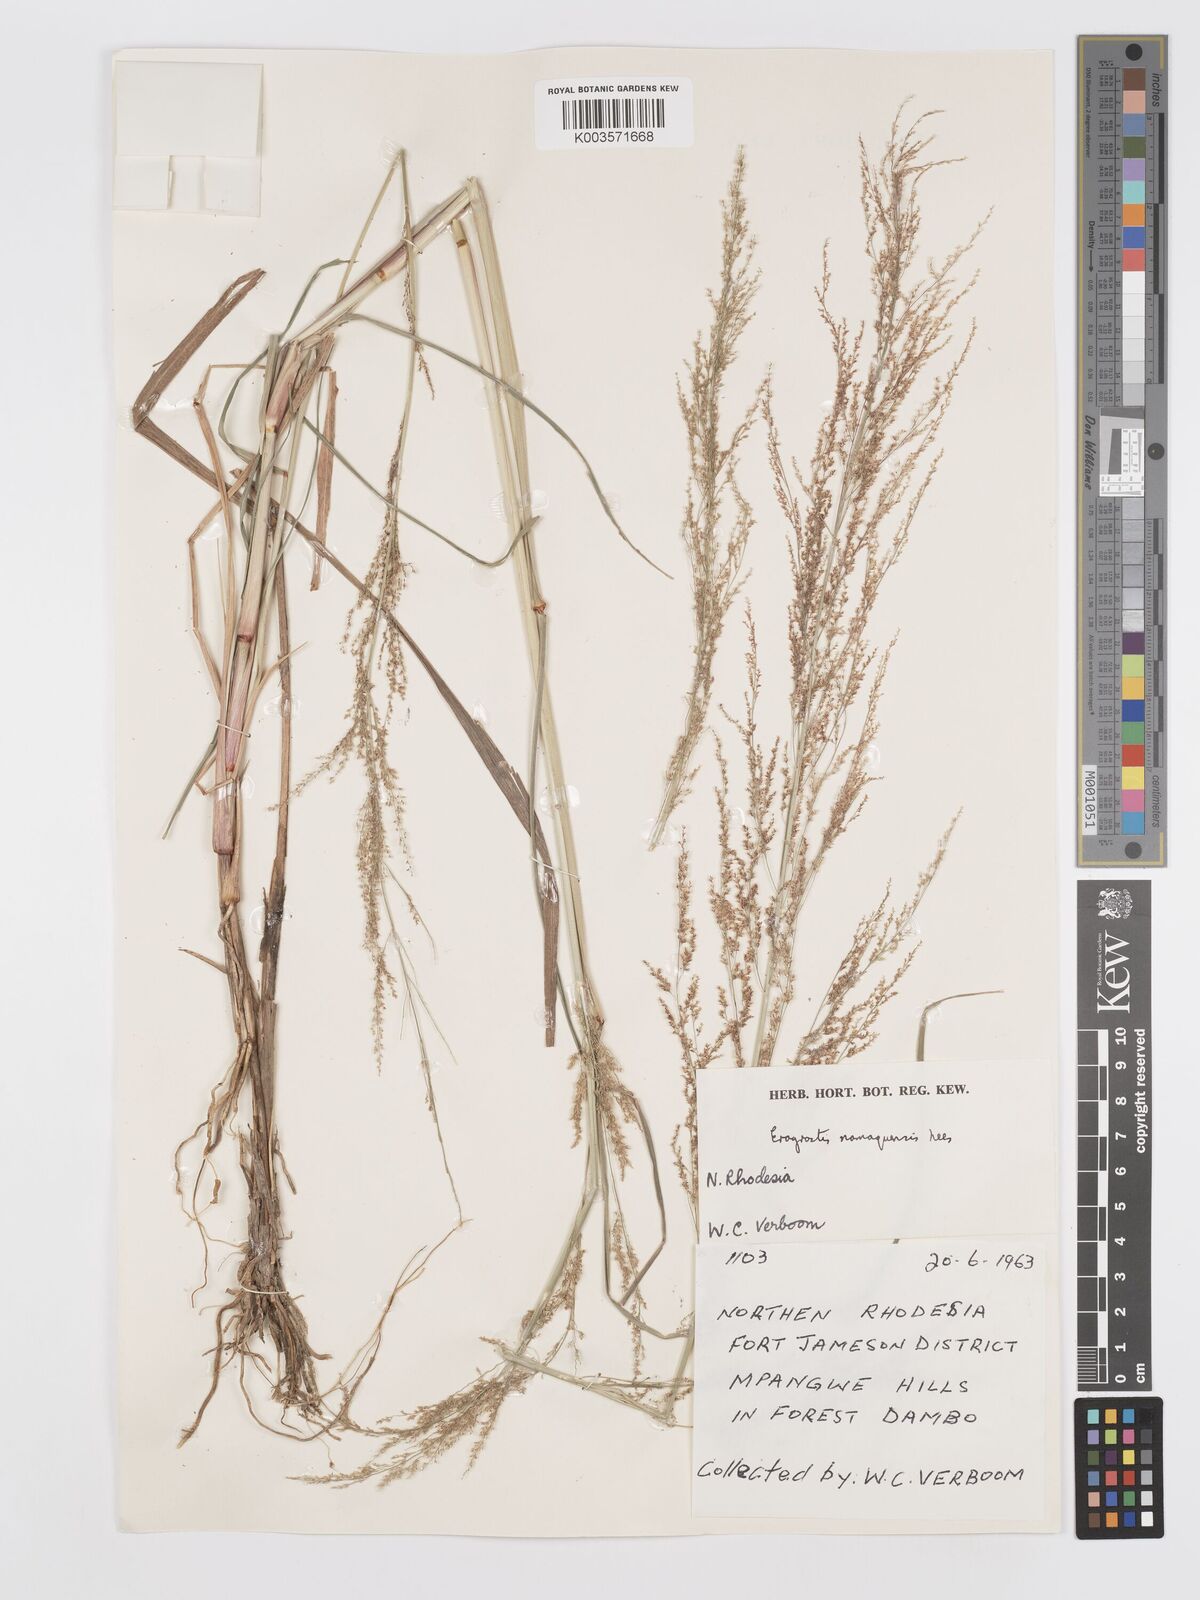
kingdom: Plantae
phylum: Tracheophyta
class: Liliopsida
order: Poales
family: Poaceae
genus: Eragrostis
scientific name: Eragrostis japonica
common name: Pond lovegrass
